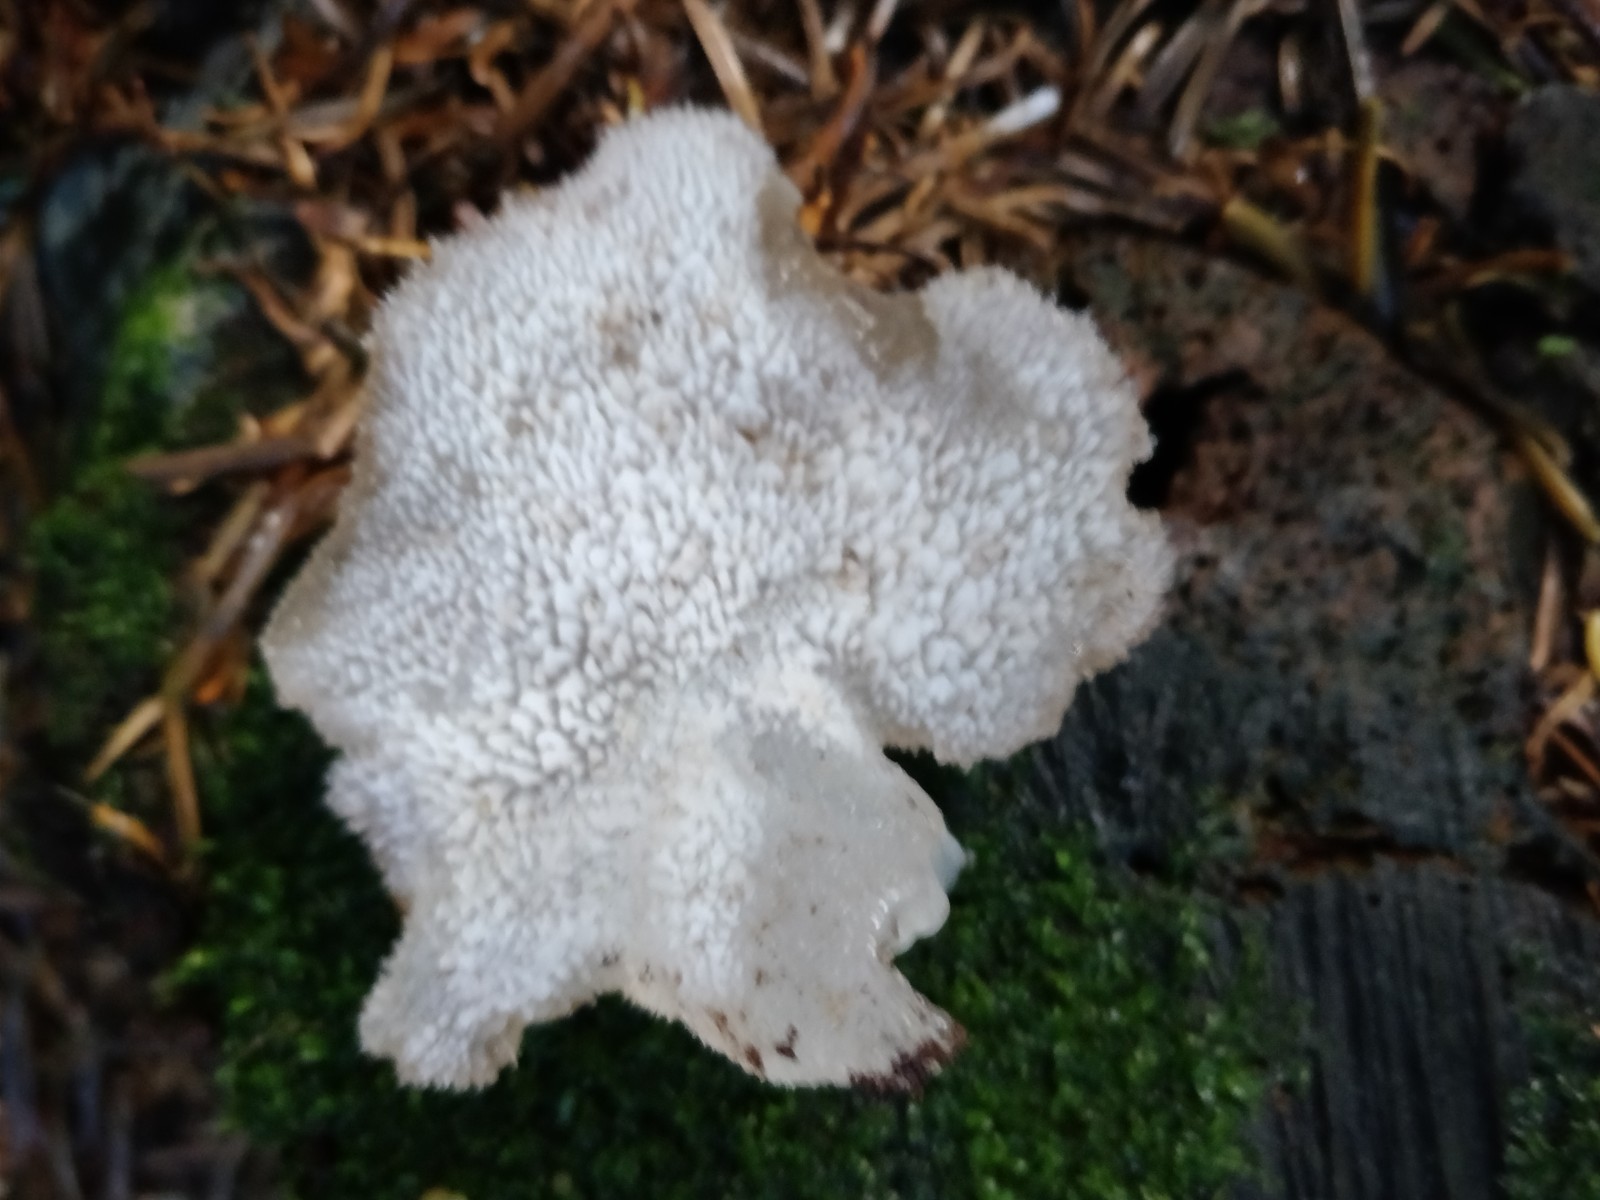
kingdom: Fungi
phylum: Basidiomycota
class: Agaricomycetes
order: Auriculariales
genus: Pseudohydnum
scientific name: Pseudohydnum gelatinosum
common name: bævretand
